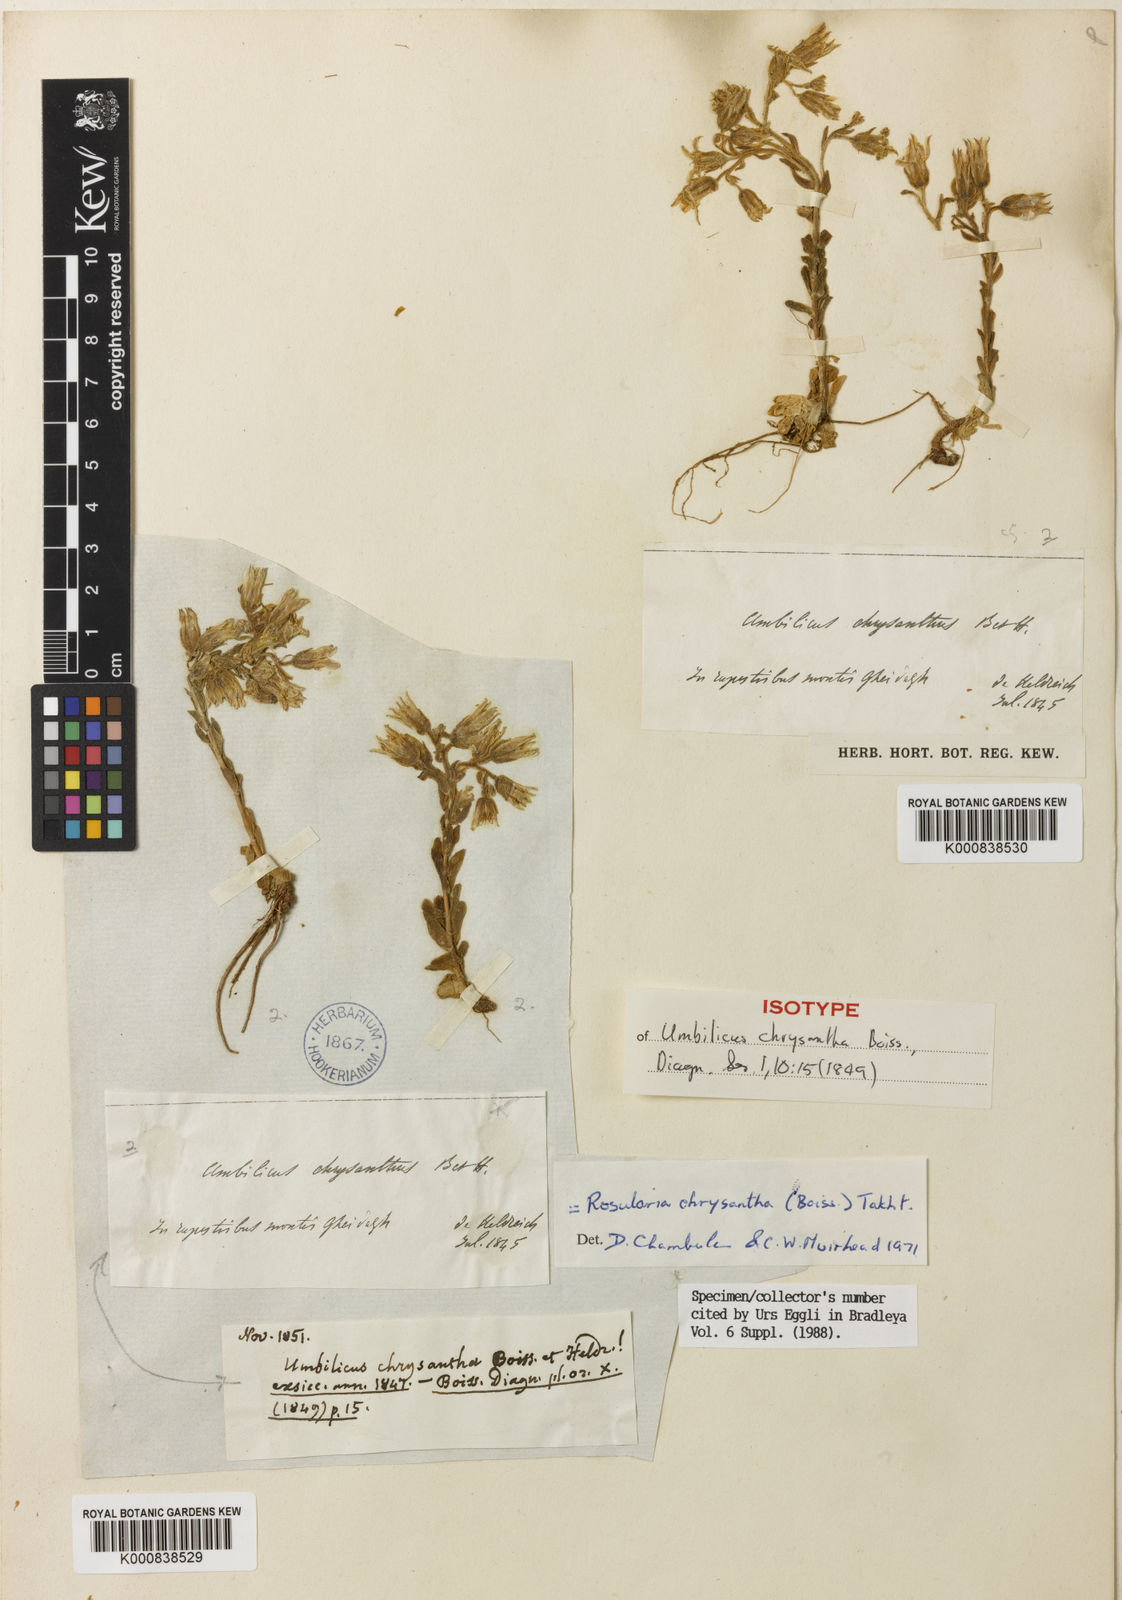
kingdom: Plantae
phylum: Tracheophyta
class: Magnoliopsida
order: Saxifragales
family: Crassulaceae
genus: Prometheum
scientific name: Prometheum chrysanthum
